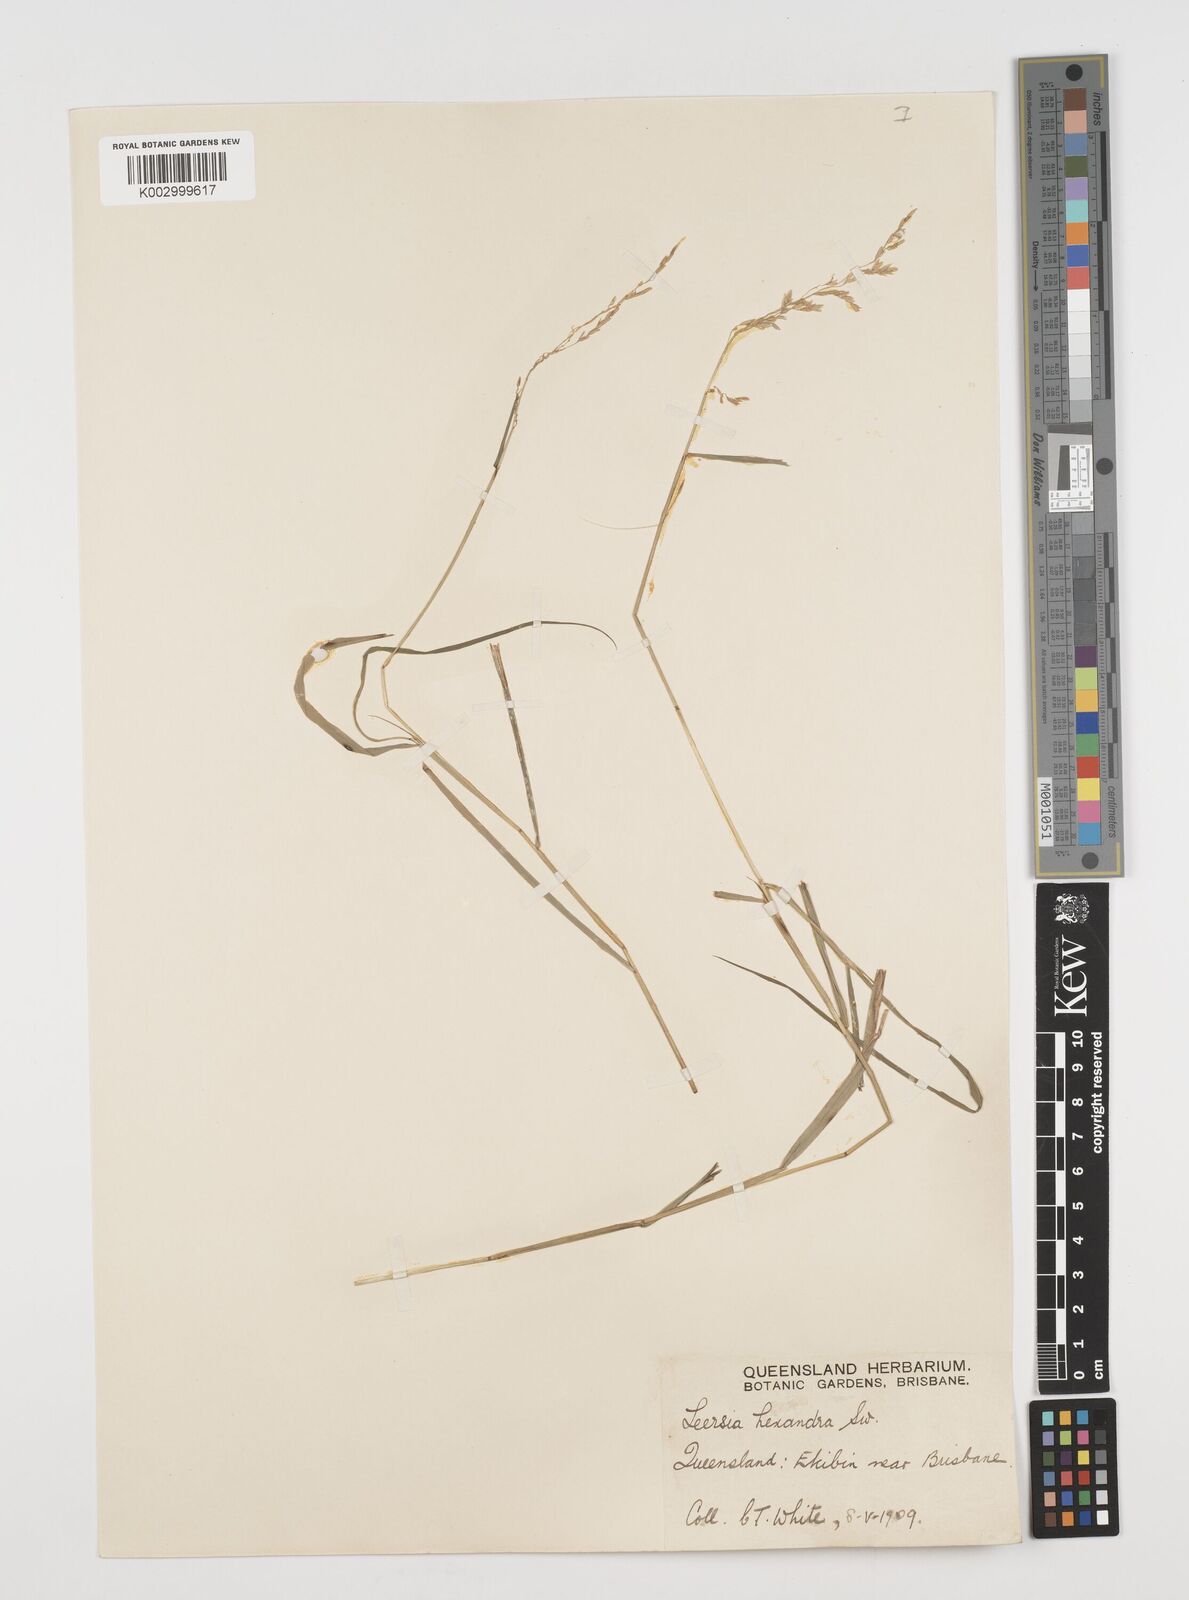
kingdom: Plantae
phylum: Tracheophyta
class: Liliopsida
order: Poales
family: Poaceae
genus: Leersia
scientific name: Leersia hexandra
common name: Southern cut grass
